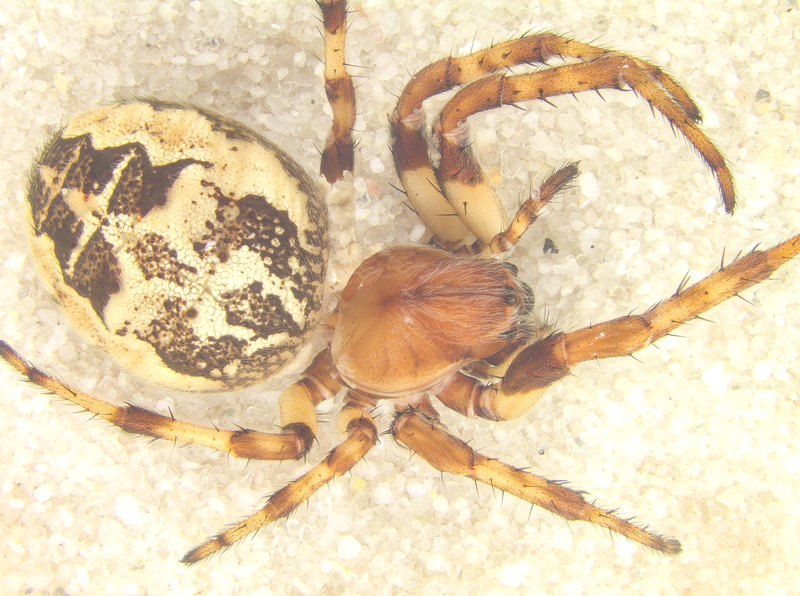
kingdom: Animalia
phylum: Arthropoda
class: Arachnida
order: Araneae
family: Araneidae
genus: Larinioides
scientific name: Larinioides cornutus
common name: Furrow orbweaver
